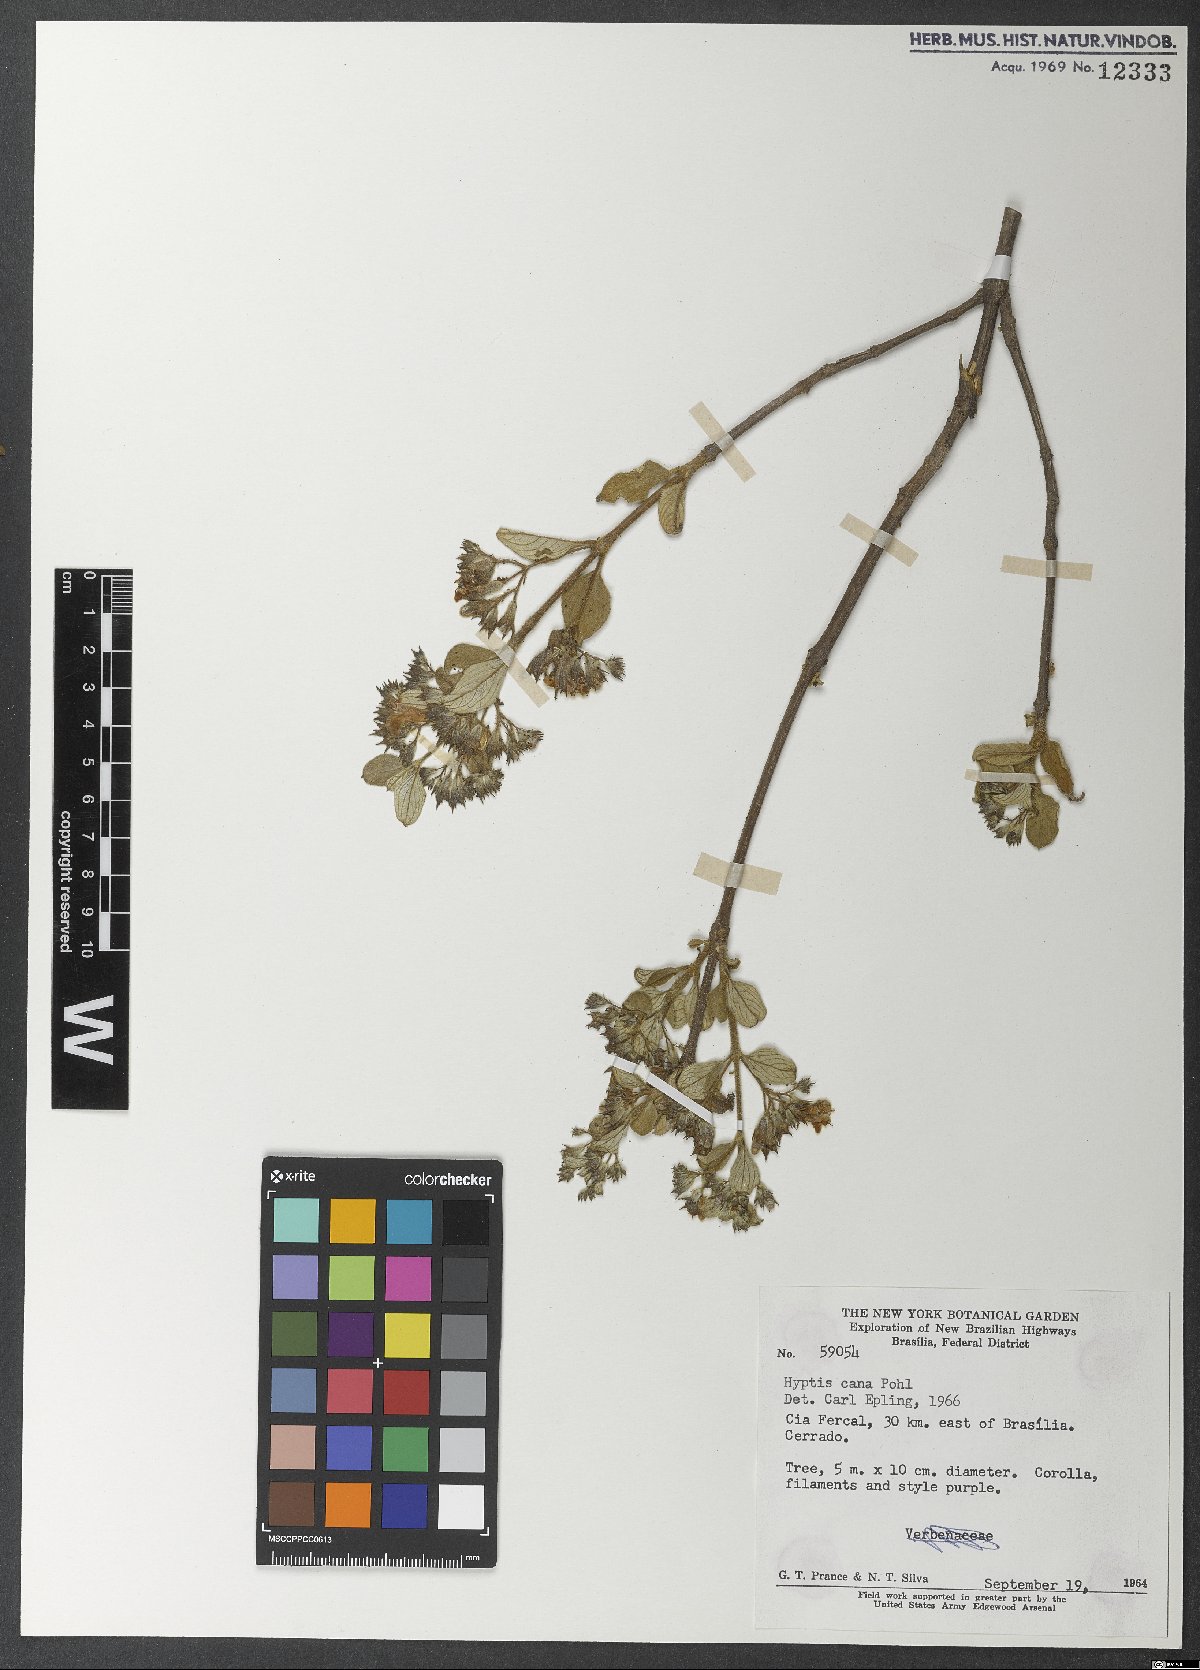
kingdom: Plantae
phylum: Tracheophyta
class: Magnoliopsida
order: Lamiales
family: Lamiaceae
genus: Hyptidendron
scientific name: Hyptidendron canum
